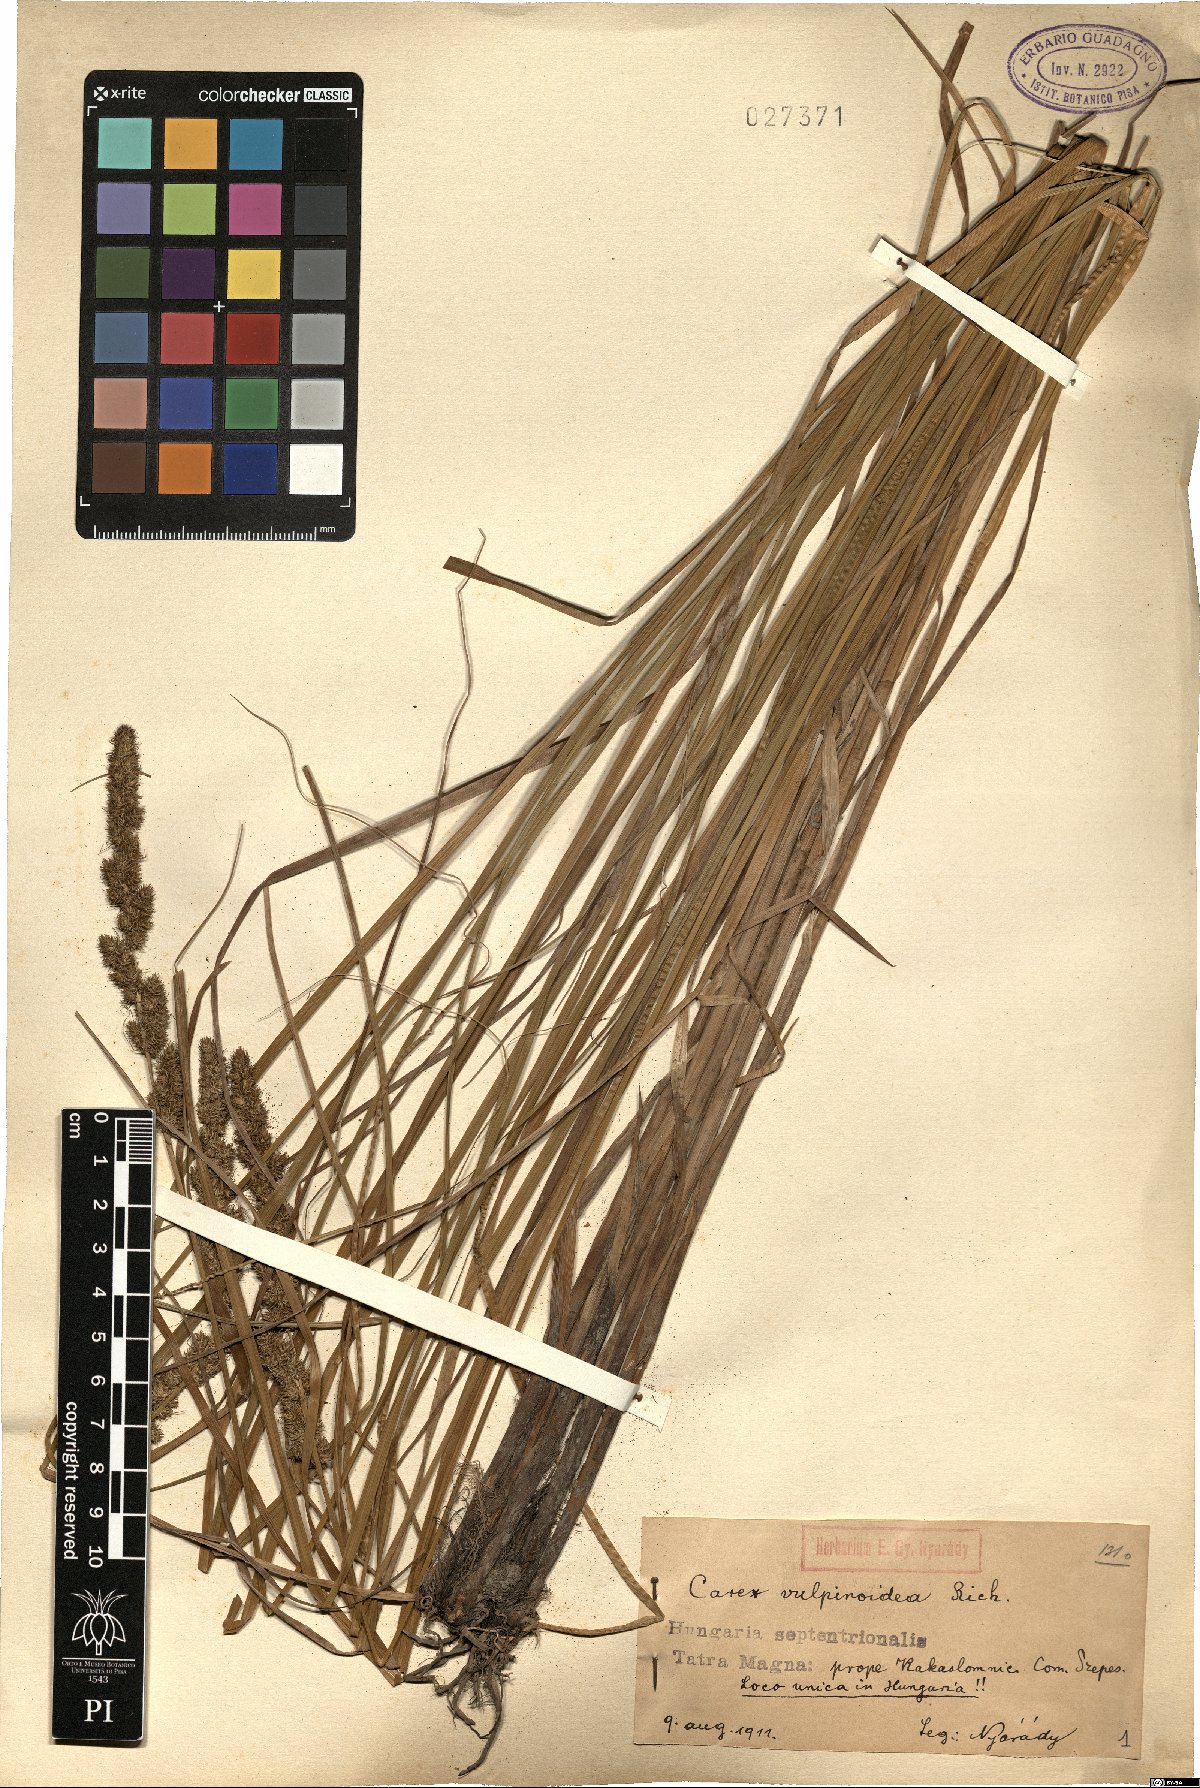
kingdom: Plantae
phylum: Tracheophyta
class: Liliopsida
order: Poales
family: Cyperaceae
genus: Carex
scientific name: Carex vulpinoidea
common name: American fox-sedge
